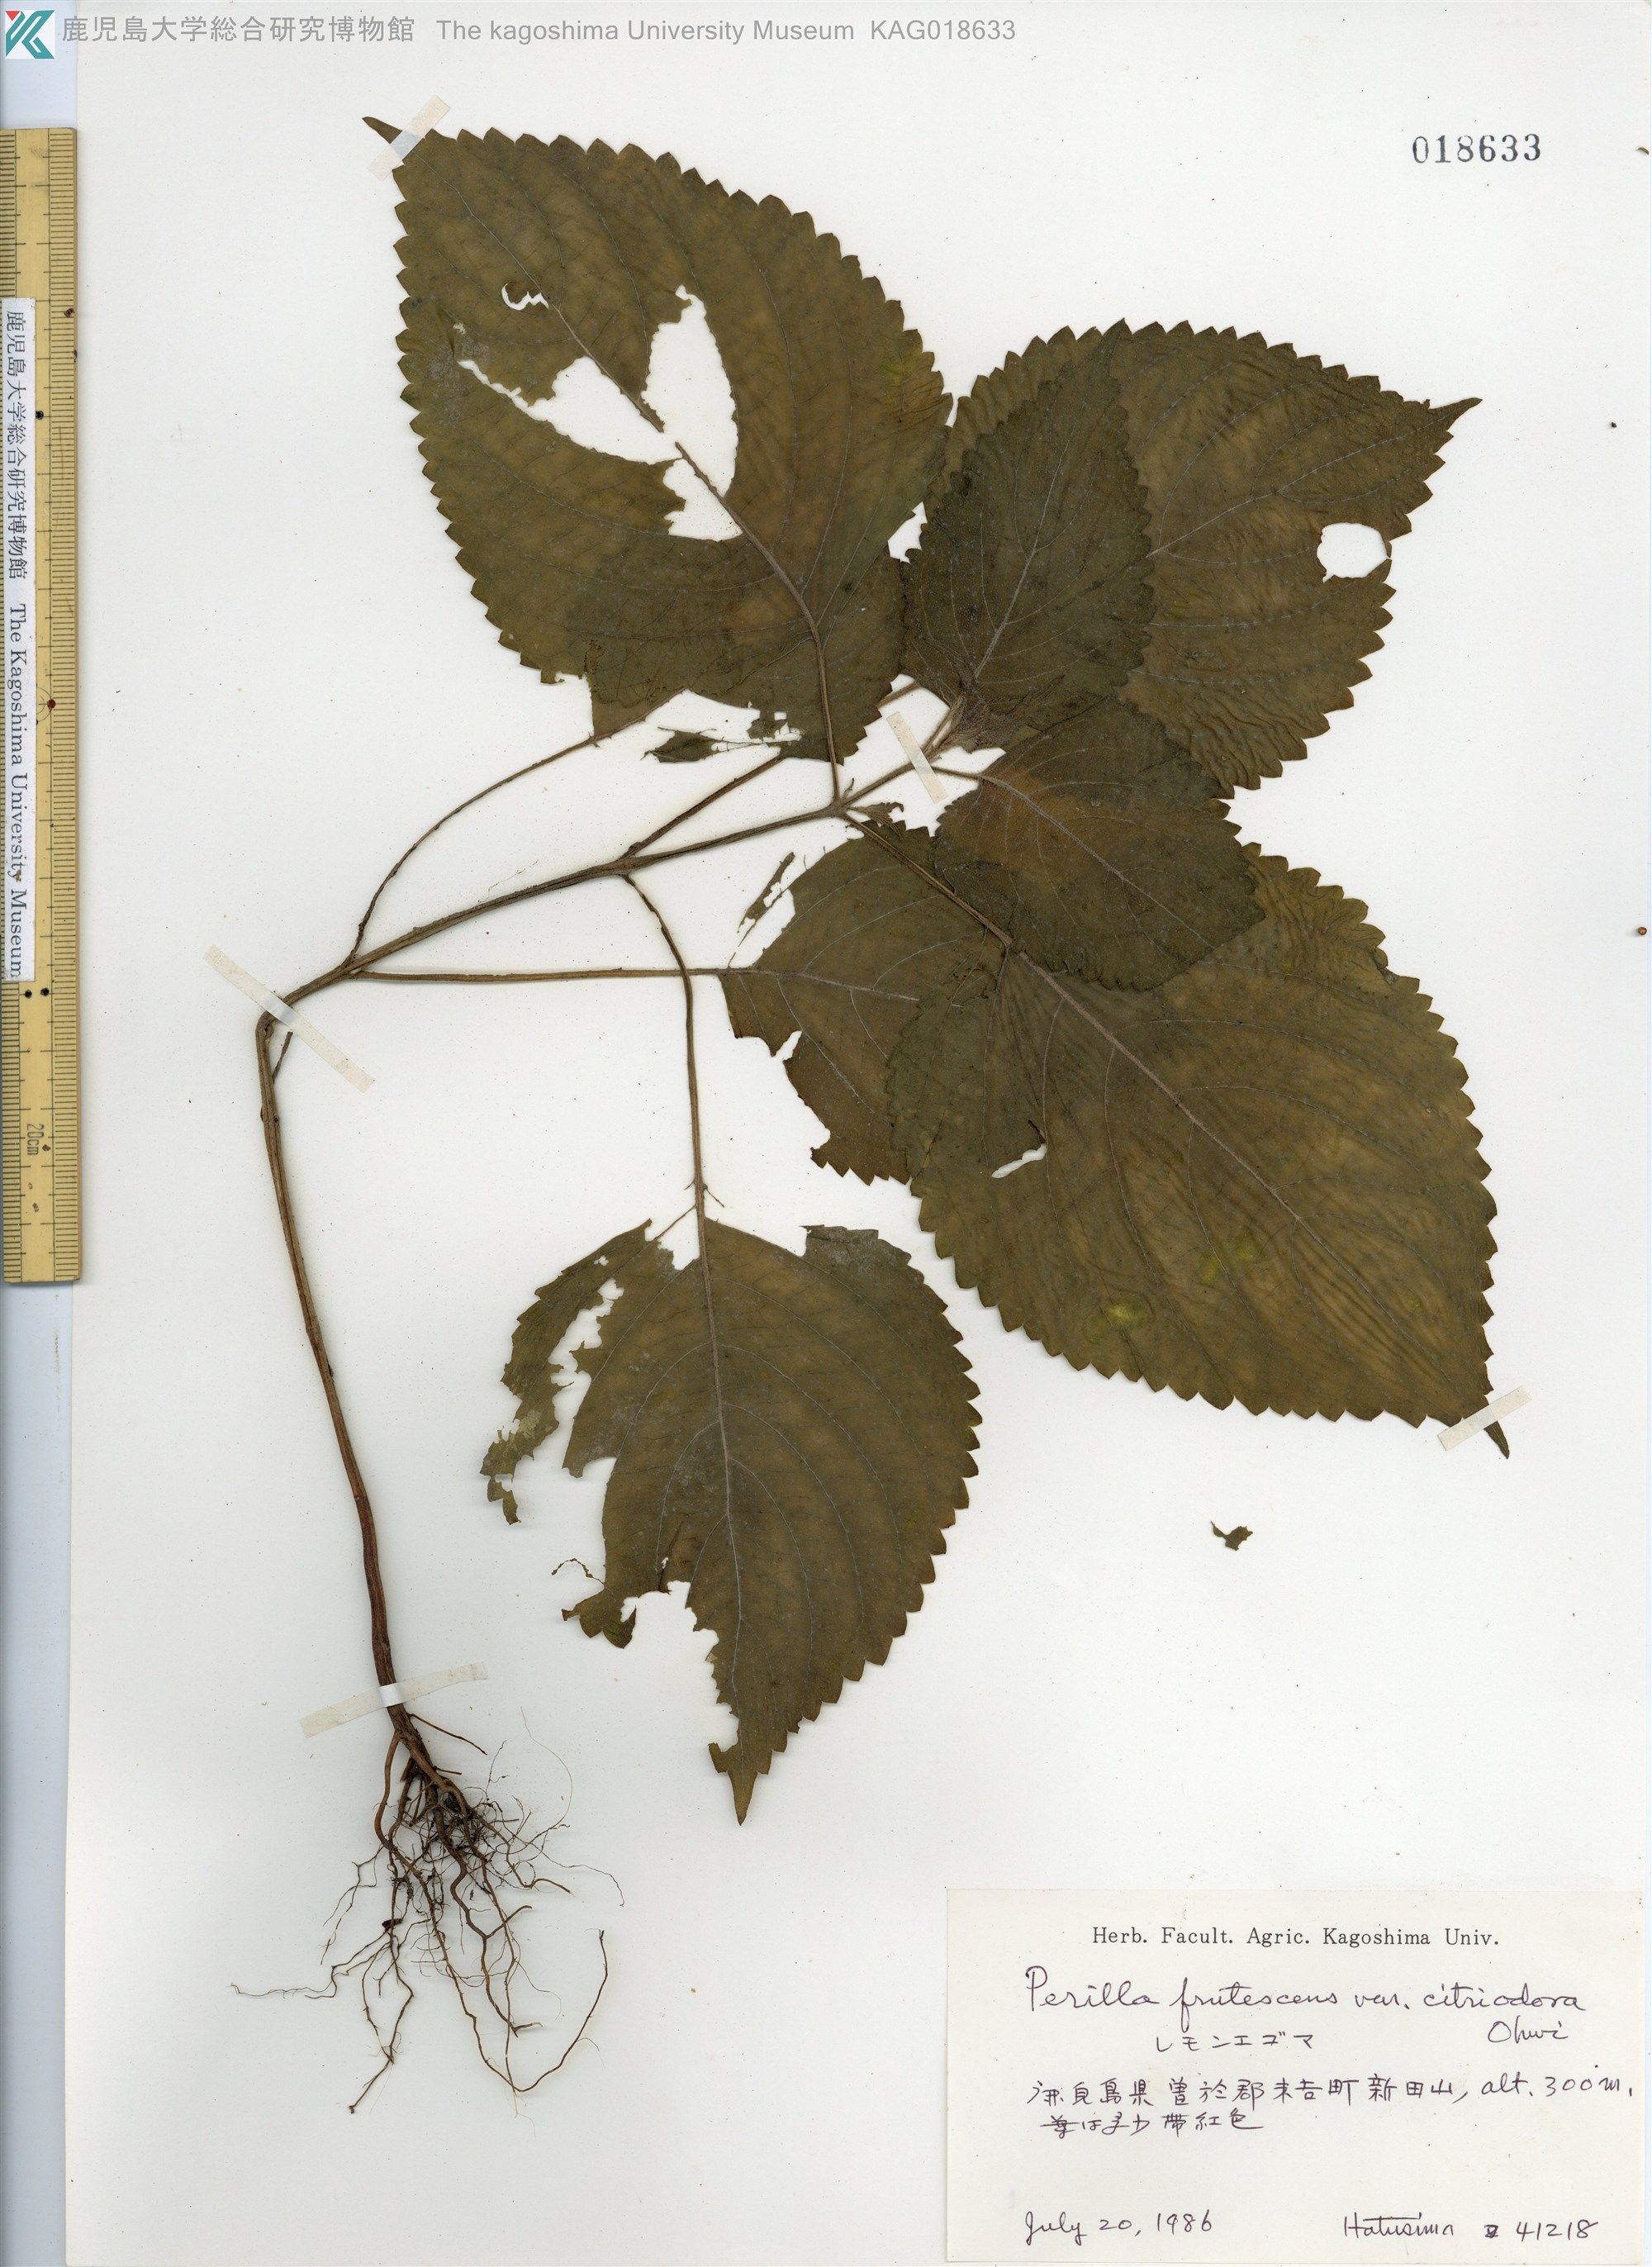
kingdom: Plantae
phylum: Tracheophyta
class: Magnoliopsida
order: Lamiales
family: Lamiaceae
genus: Perilla
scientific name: Perilla frutescens
